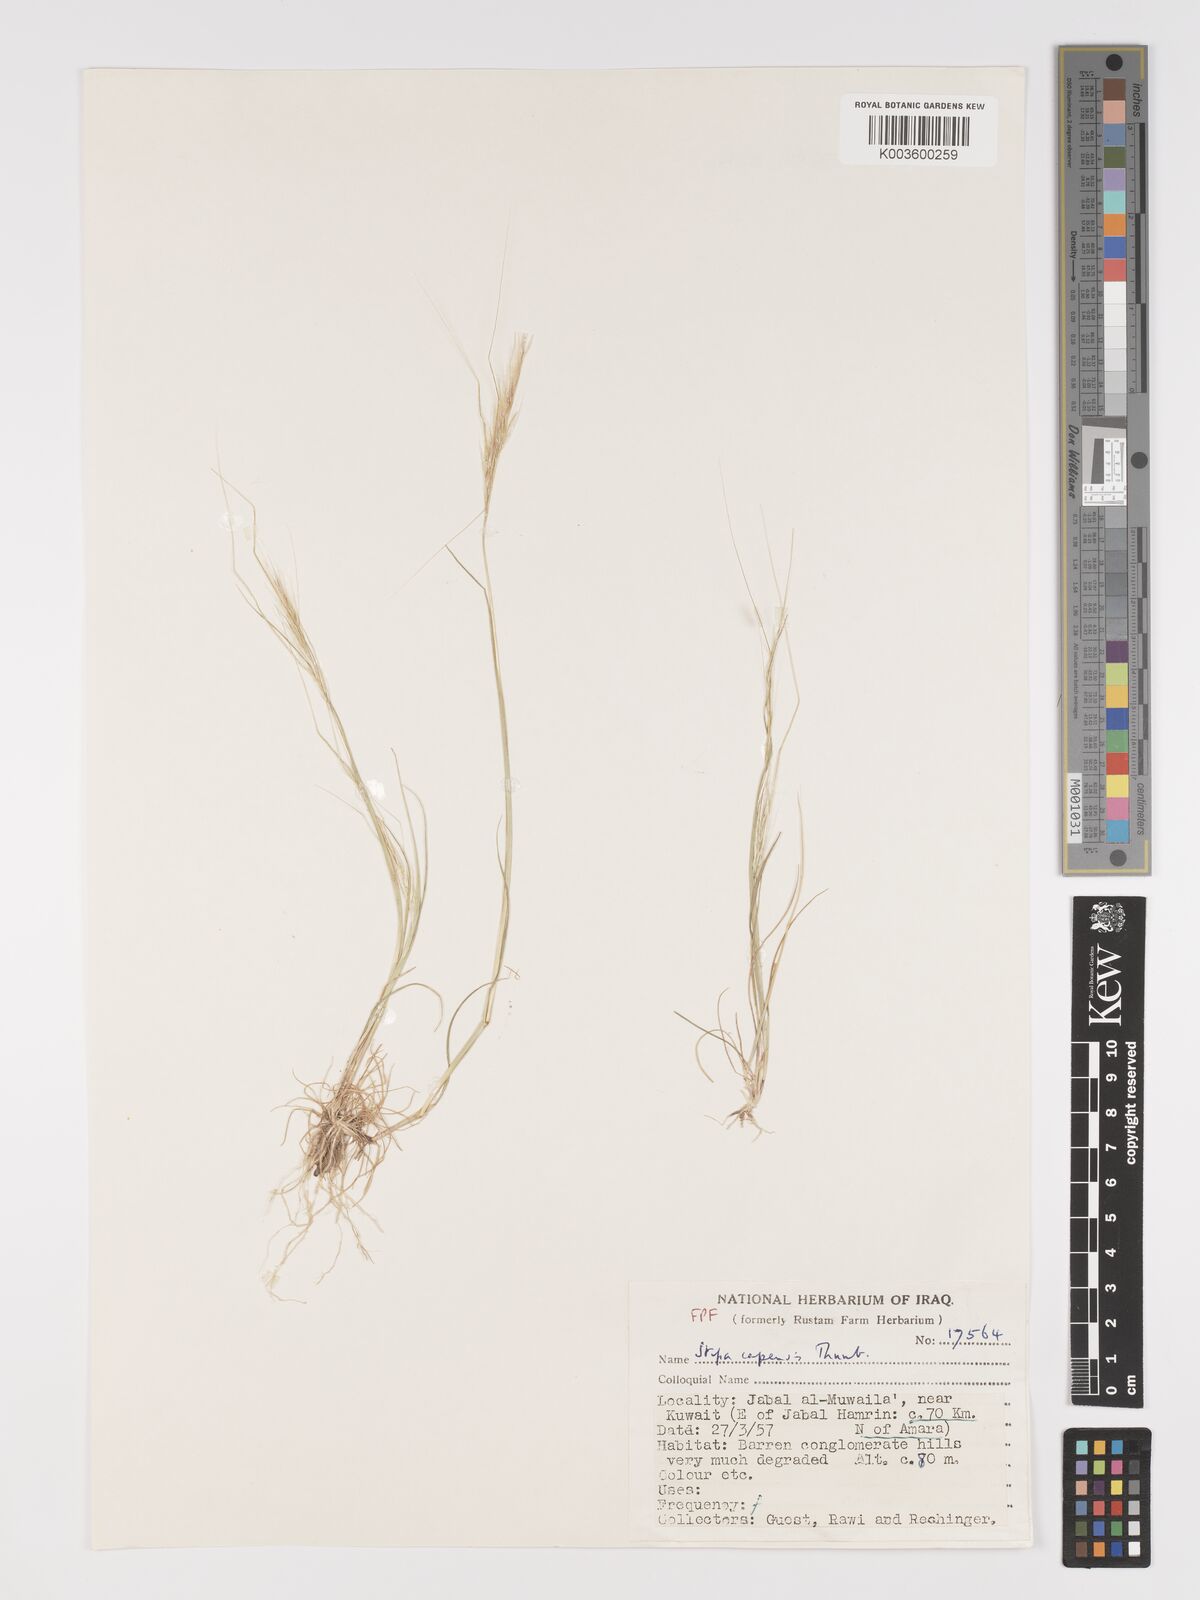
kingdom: Plantae
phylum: Tracheophyta
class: Liliopsida
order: Poales
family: Poaceae
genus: Stipellula
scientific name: Stipellula capensis
